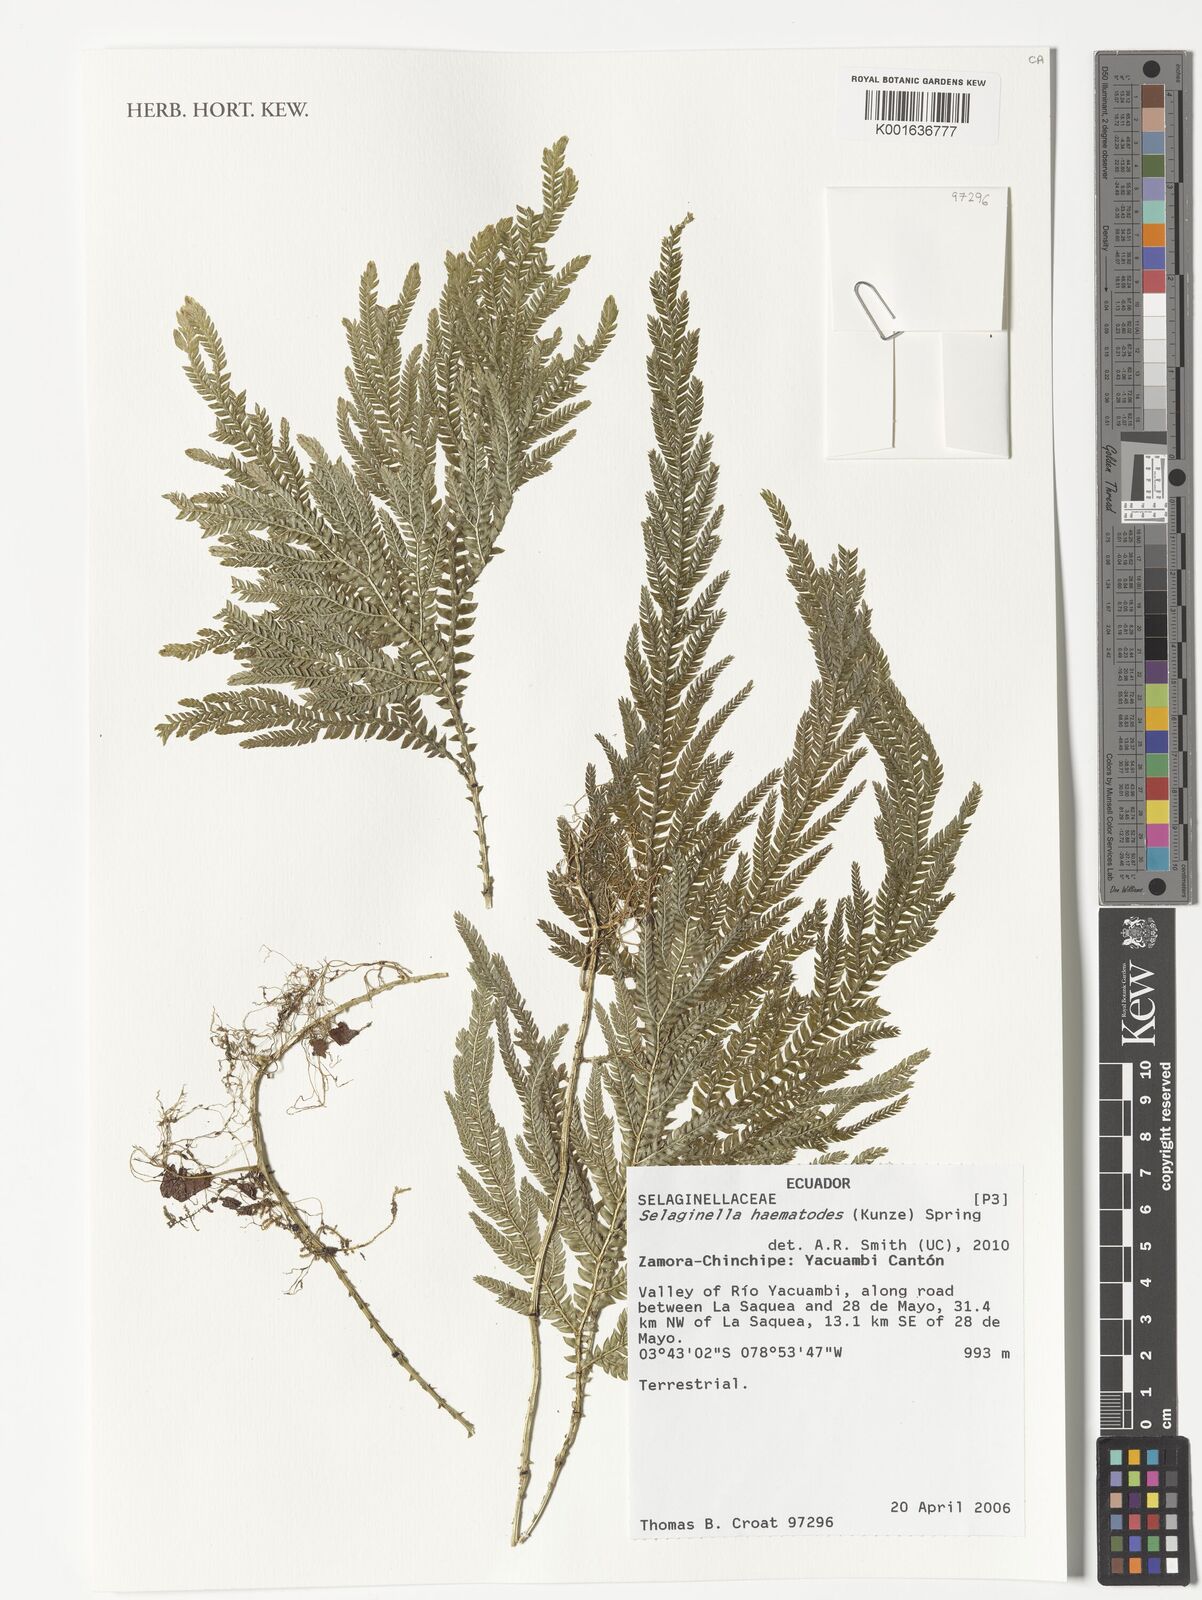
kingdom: Plantae
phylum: Tracheophyta
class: Lycopodiopsida
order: Selaginellales
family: Selaginellaceae
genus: Selaginella
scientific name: Selaginella haematodes
